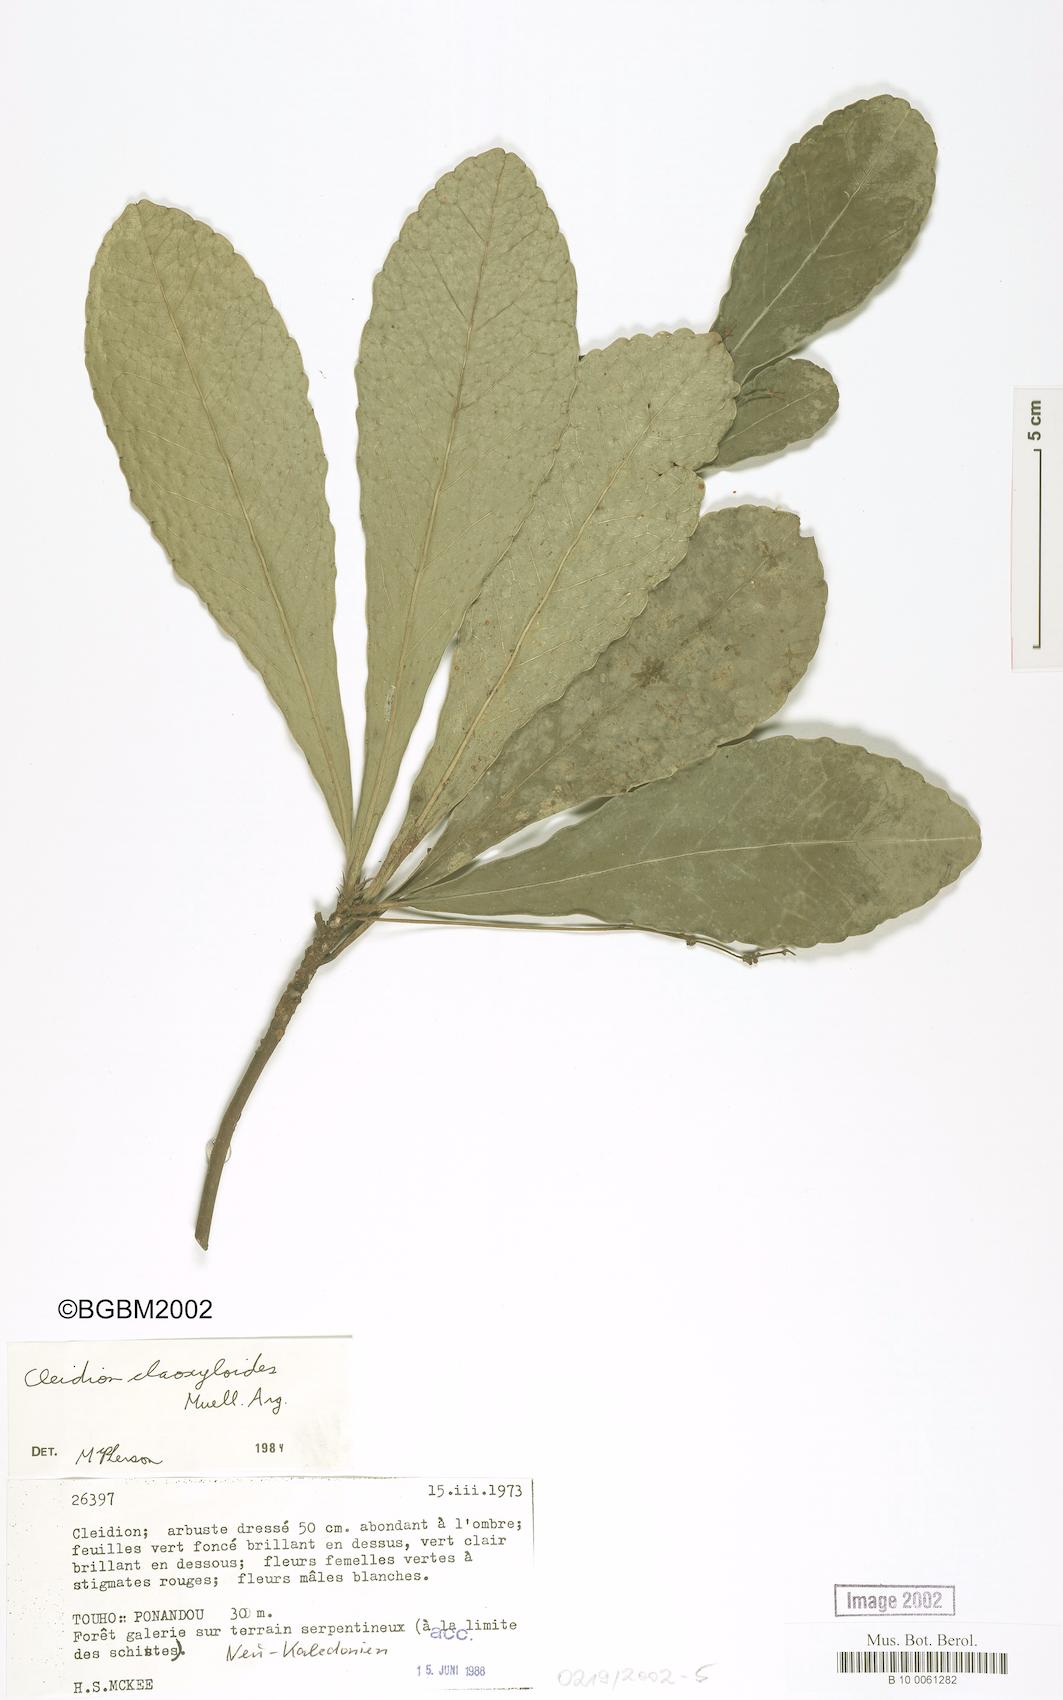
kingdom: Plantae
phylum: Tracheophyta
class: Magnoliopsida
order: Malpighiales
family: Euphorbiaceae
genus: Cleidion
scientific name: Cleidion claoxyloides
